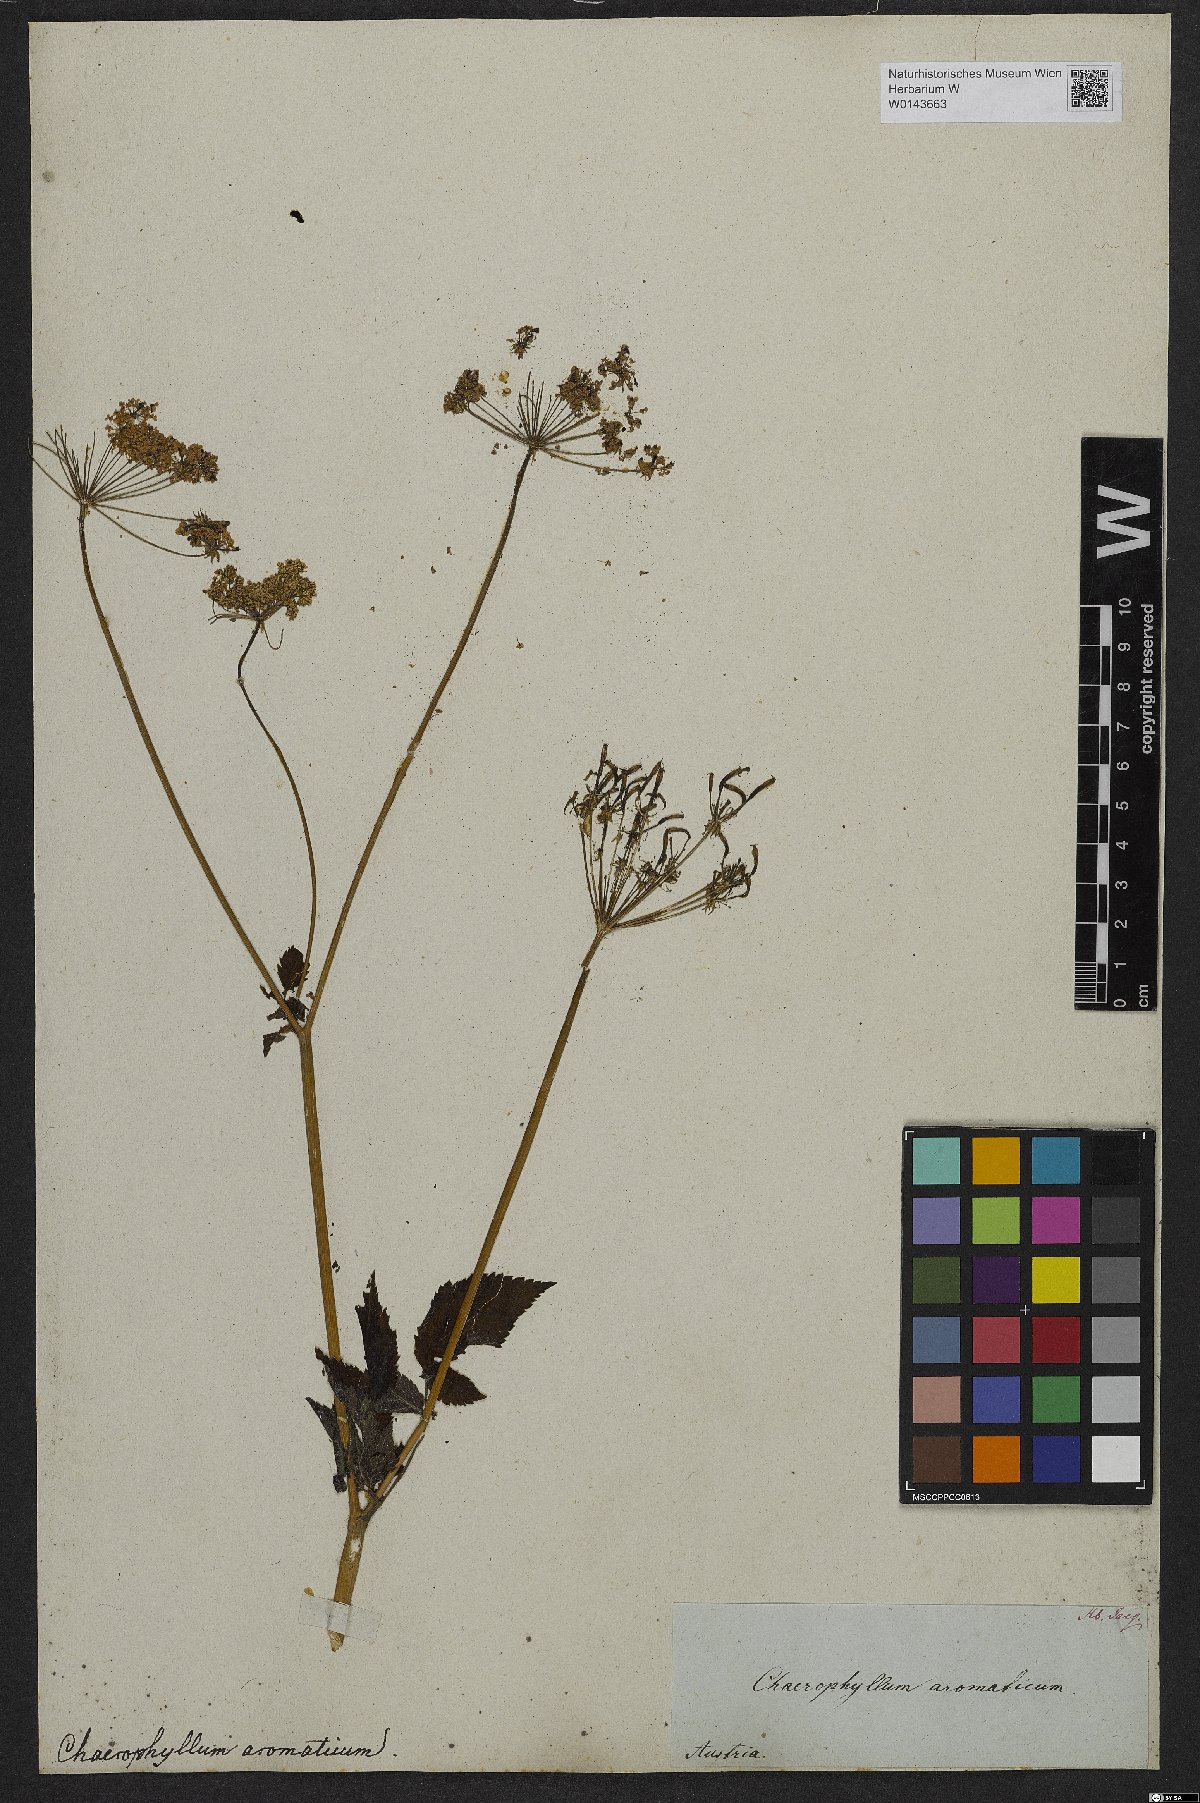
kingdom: Plantae
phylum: Tracheophyta
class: Magnoliopsida
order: Apiales
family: Apiaceae
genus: Chaerophyllum
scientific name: Chaerophyllum aromaticum
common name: Broadleaf chervil
